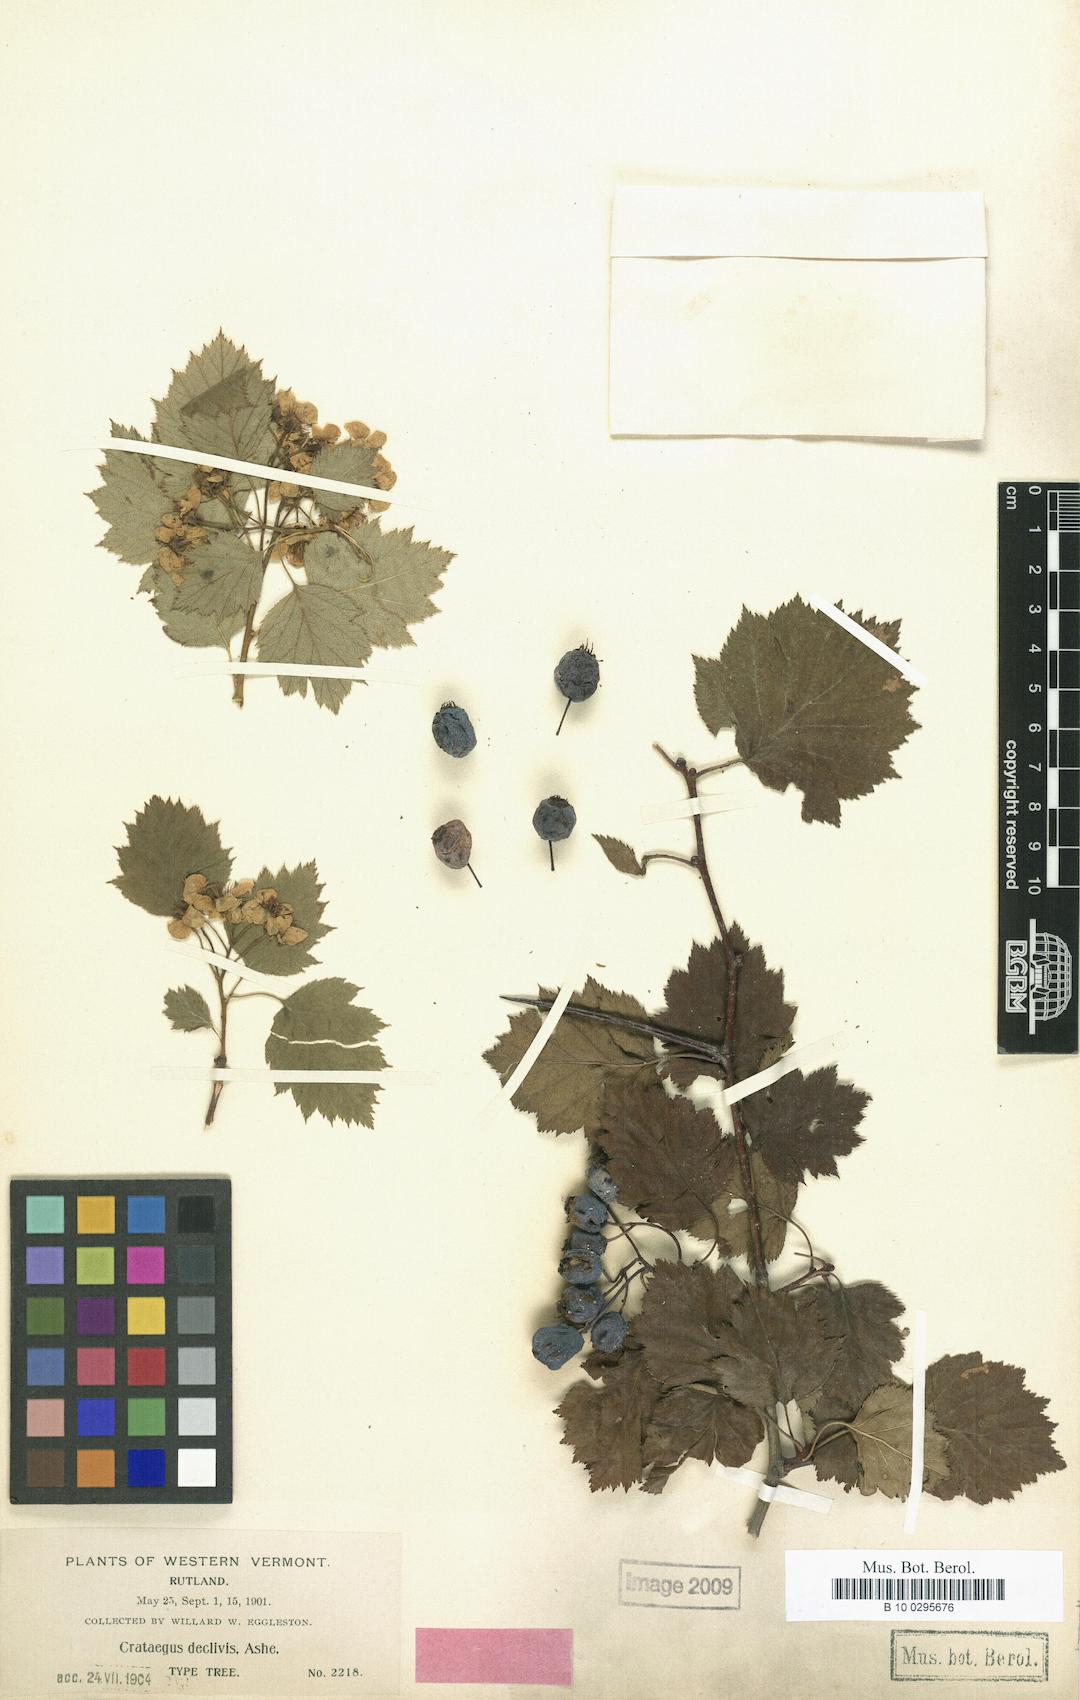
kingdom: Plantae
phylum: Tracheophyta
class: Magnoliopsida
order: Rosales
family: Rosaceae
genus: Crataegus
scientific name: Crataegus
